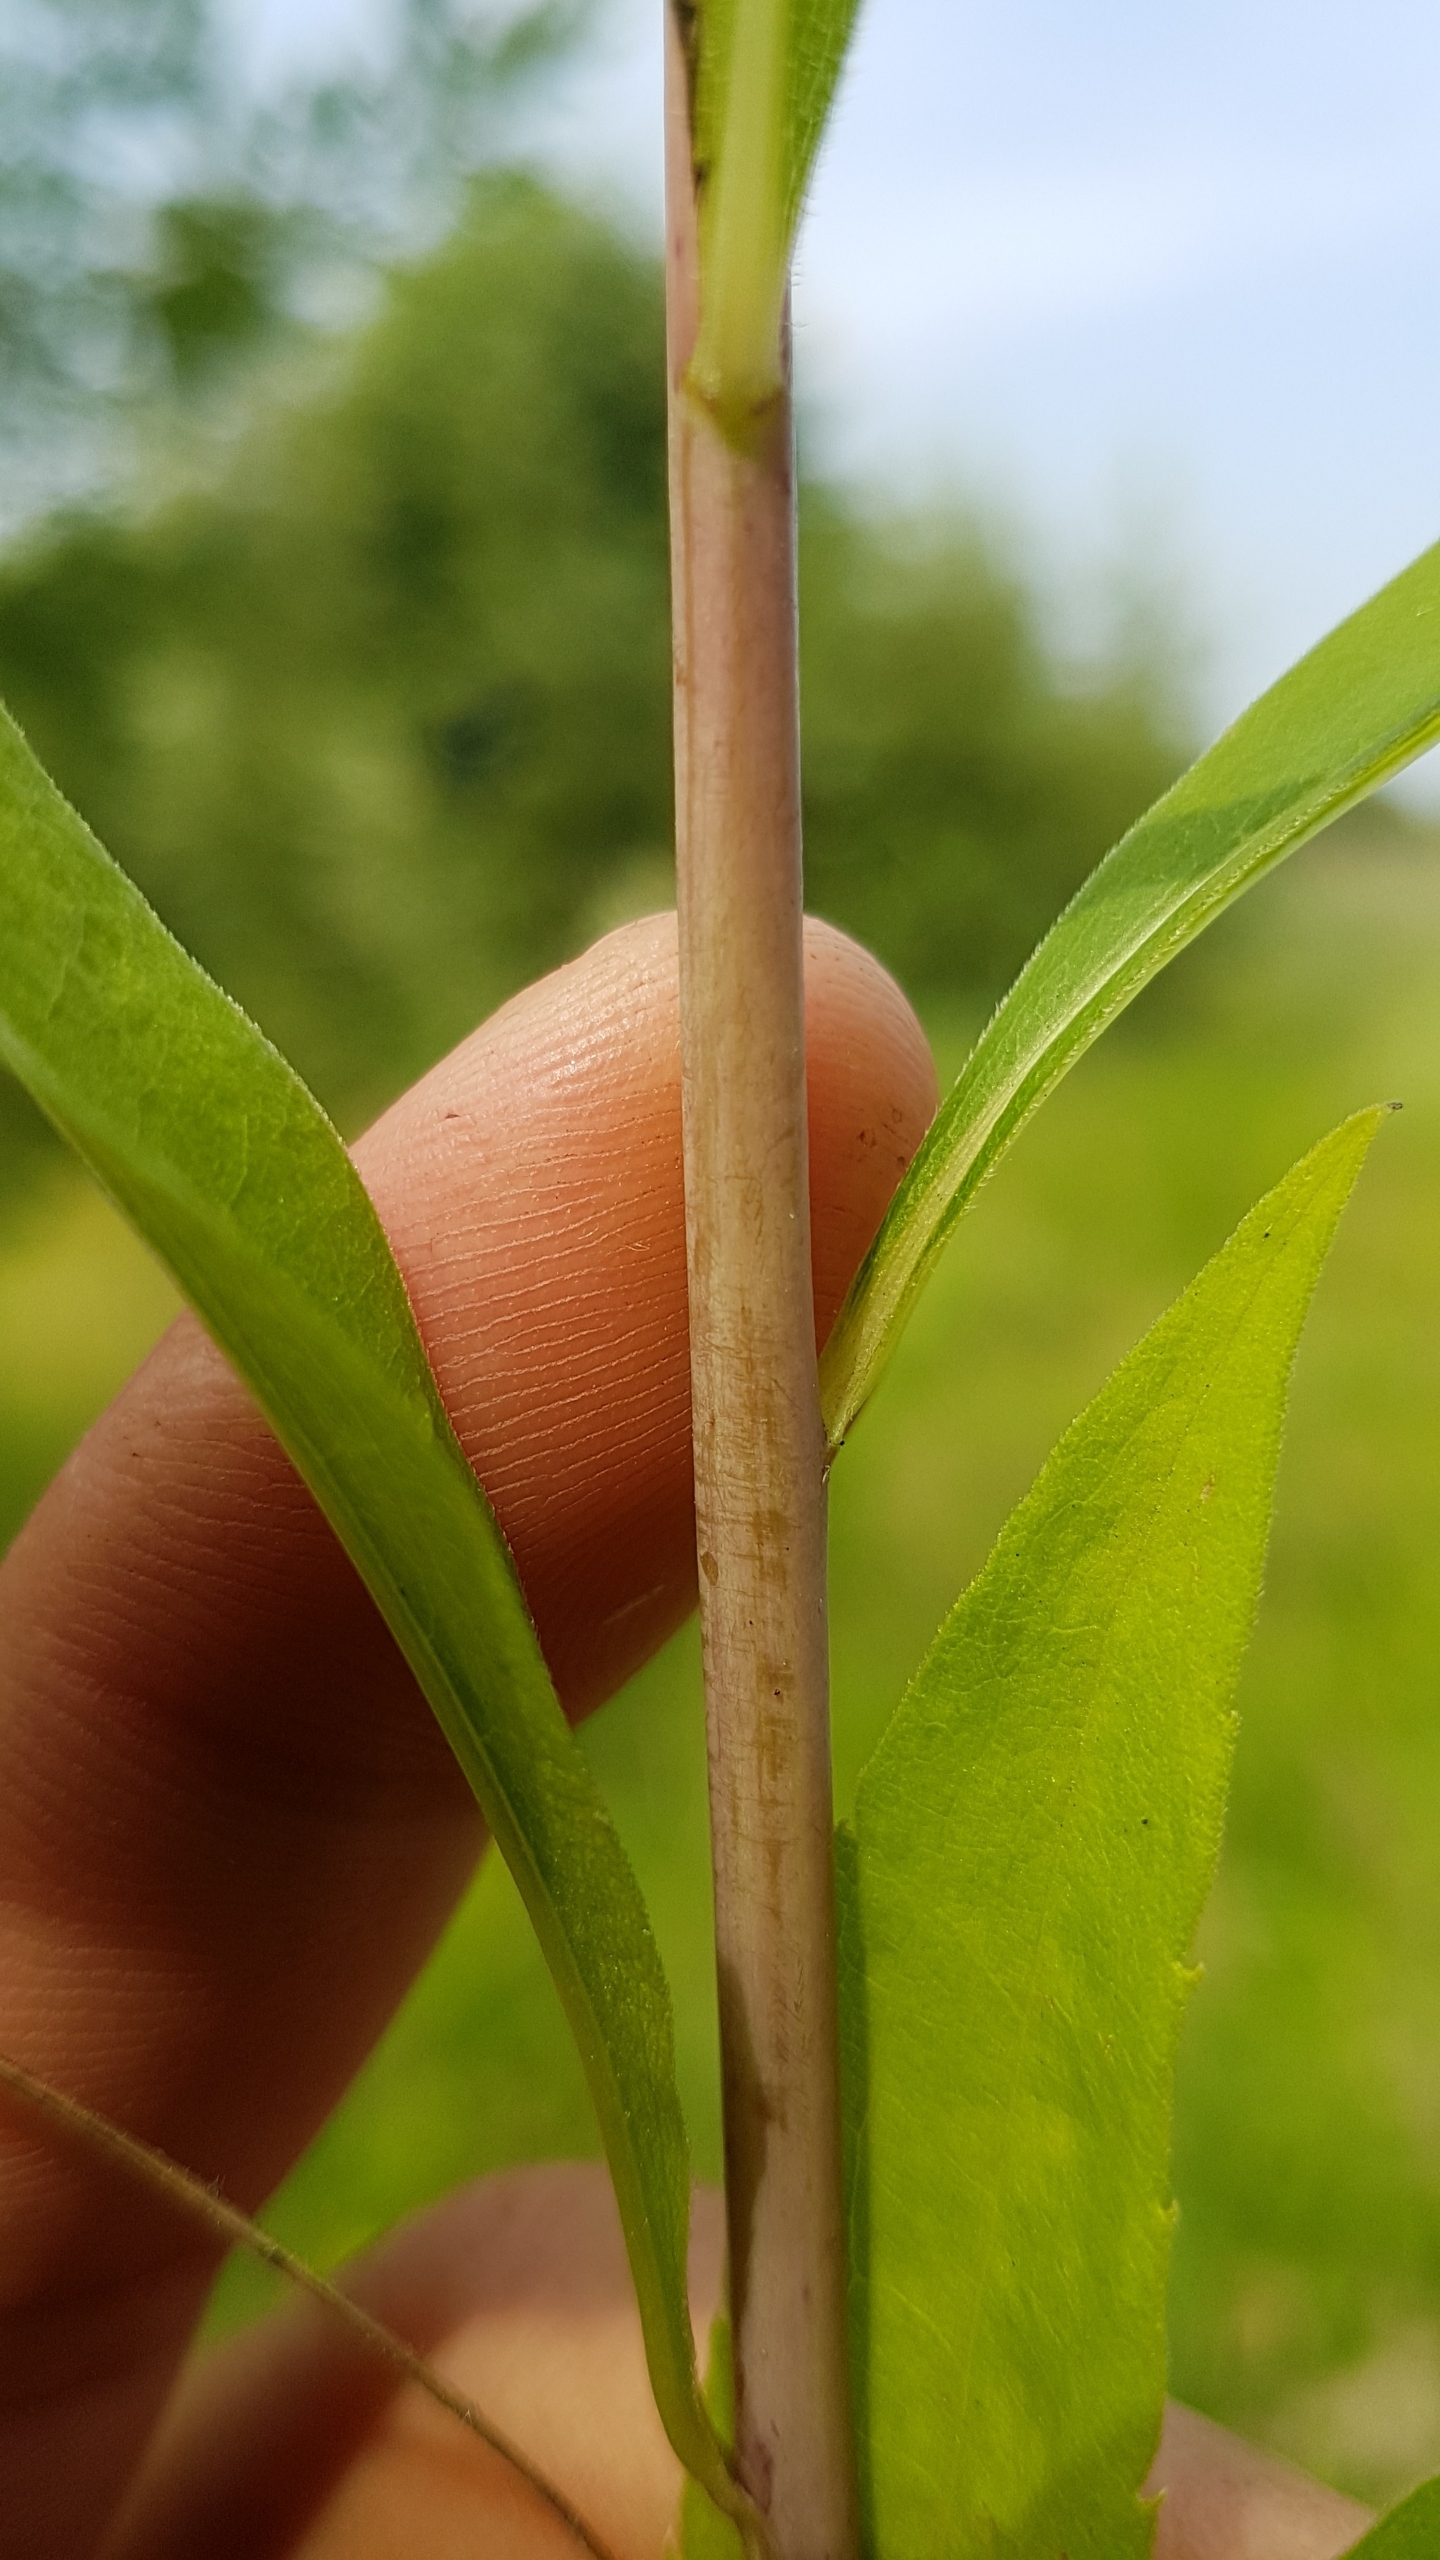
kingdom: Plantae
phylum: Tracheophyta
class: Magnoliopsida
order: Asterales
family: Asteraceae
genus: Solidago
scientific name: Solidago gigantea
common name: Sildig gyldenris
